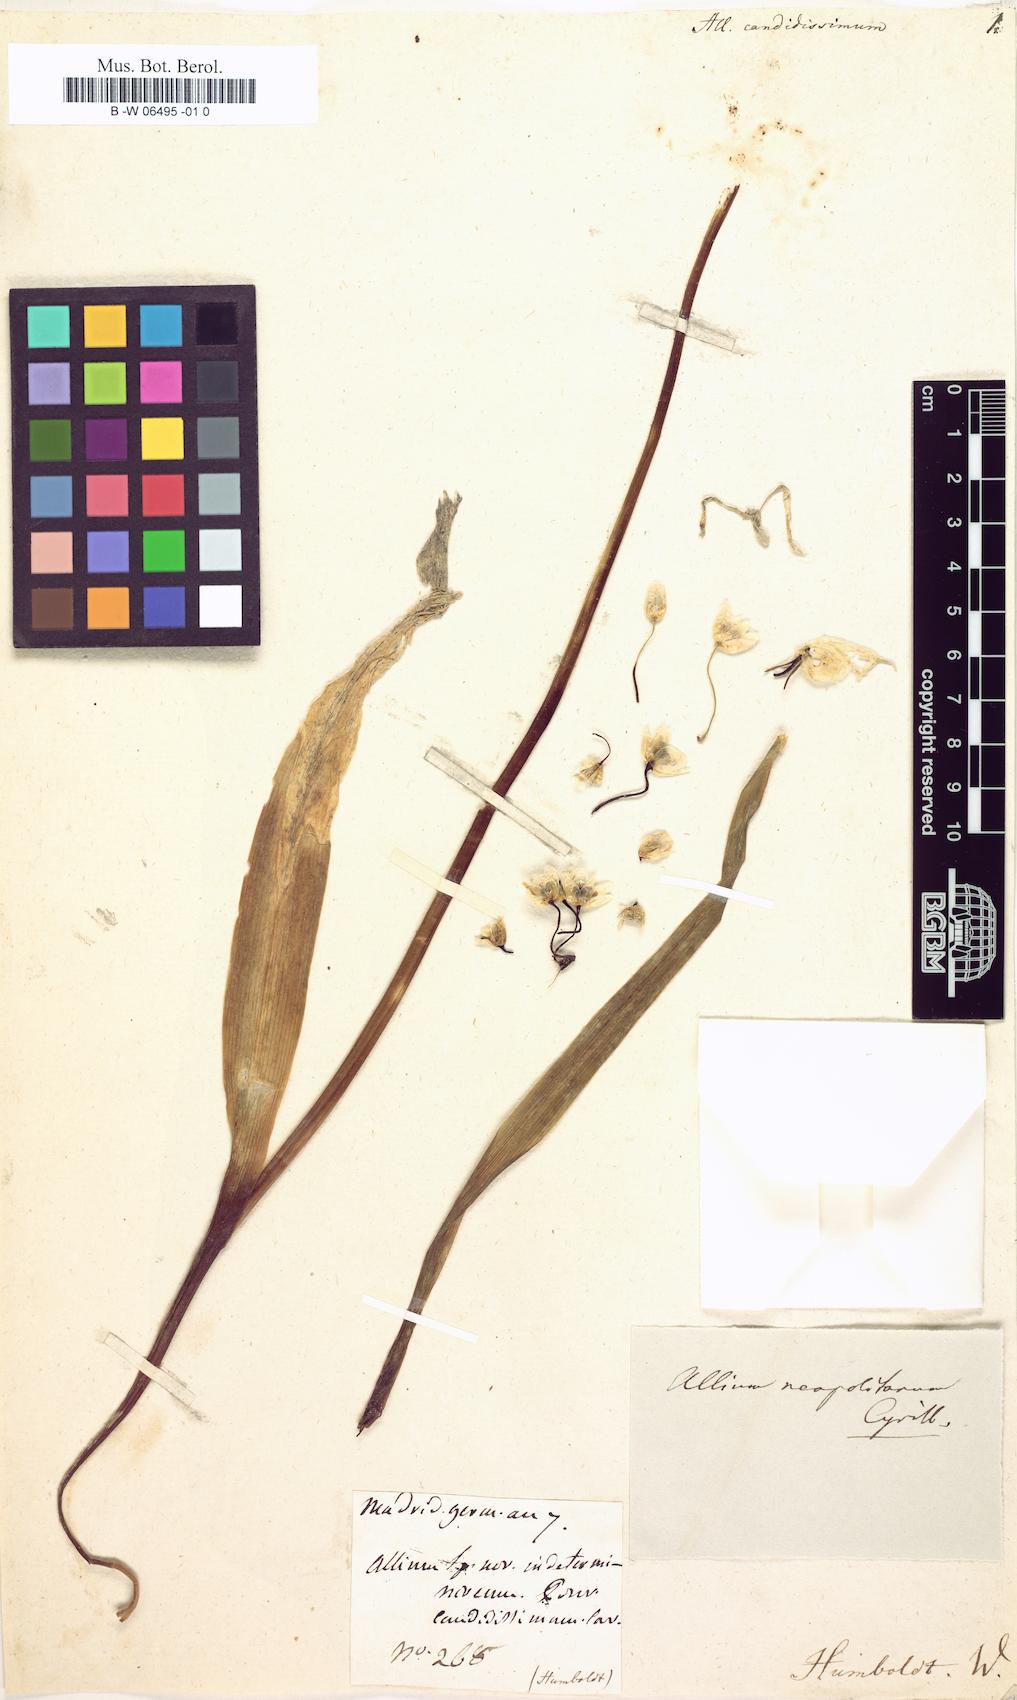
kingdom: Plantae
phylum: Tracheophyta
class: Liliopsida
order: Asparagales
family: Amaryllidaceae
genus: Allium
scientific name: Allium neapolitanum
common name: Neapolitan garlic
